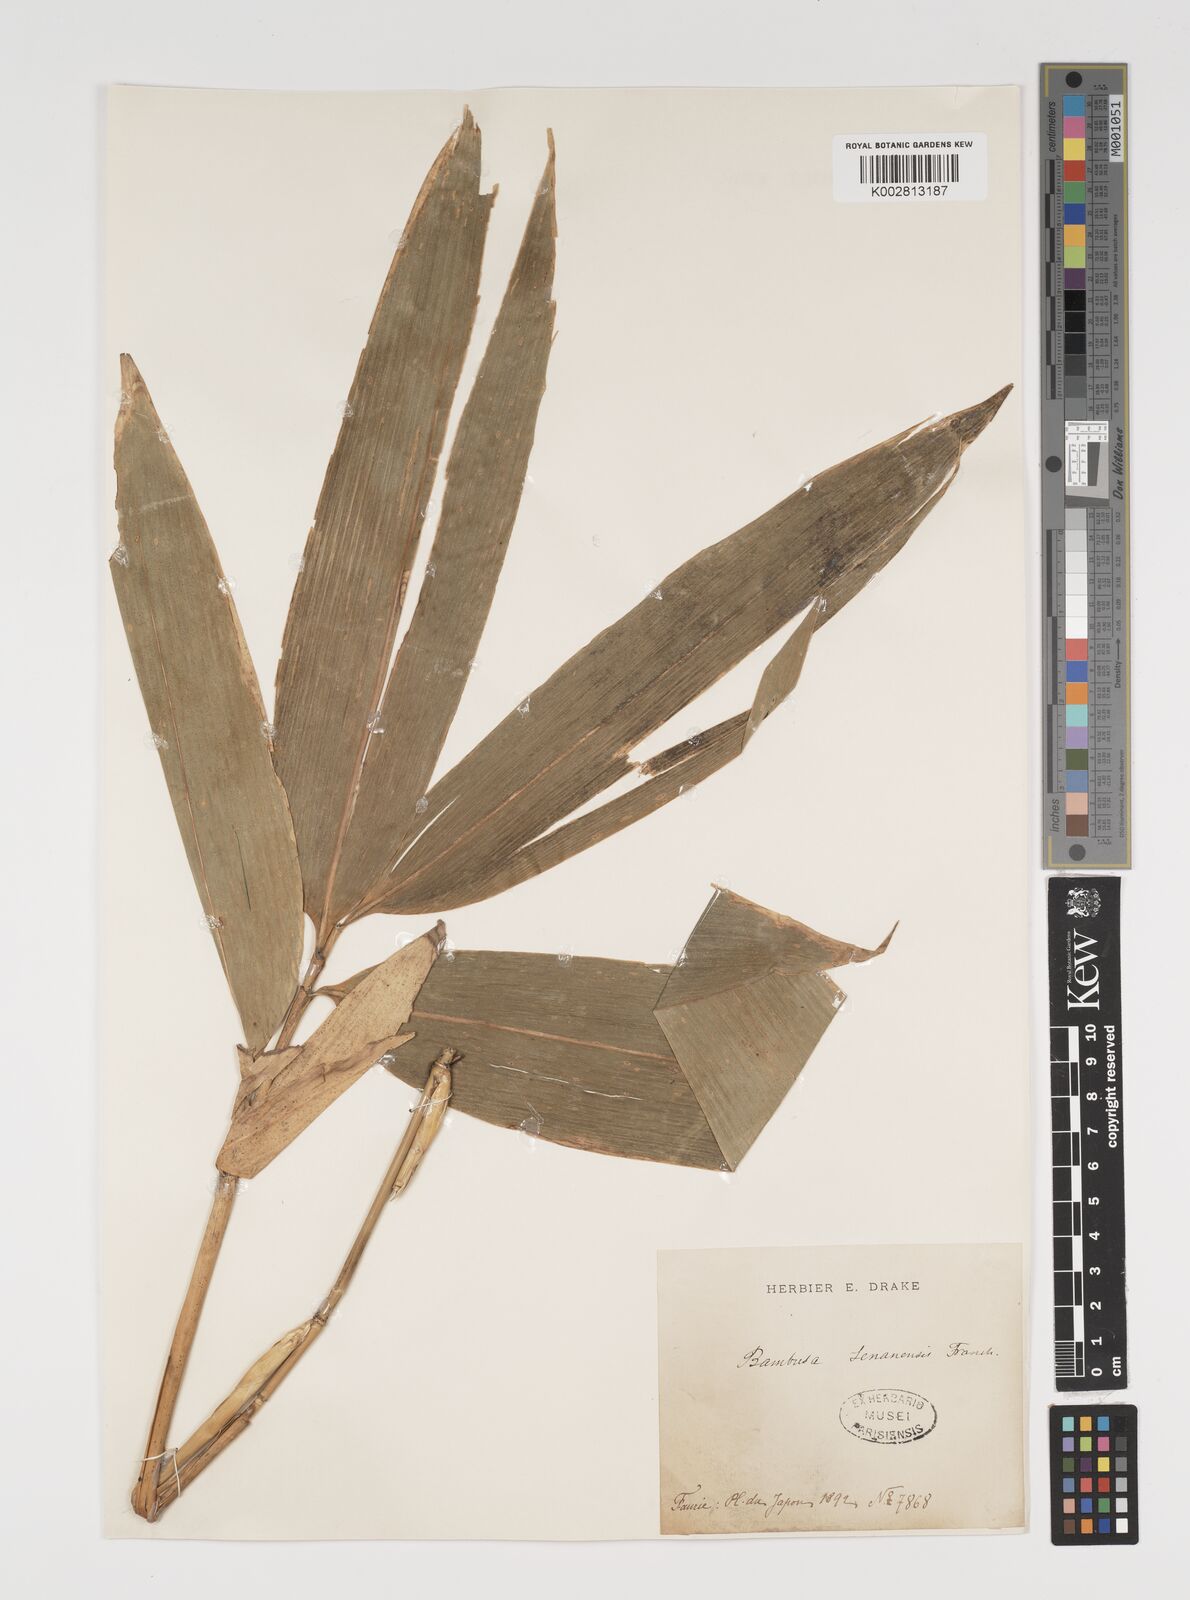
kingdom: Plantae
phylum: Tracheophyta
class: Liliopsida
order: Poales
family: Poaceae
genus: Sasa
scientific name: Sasa senanensis
